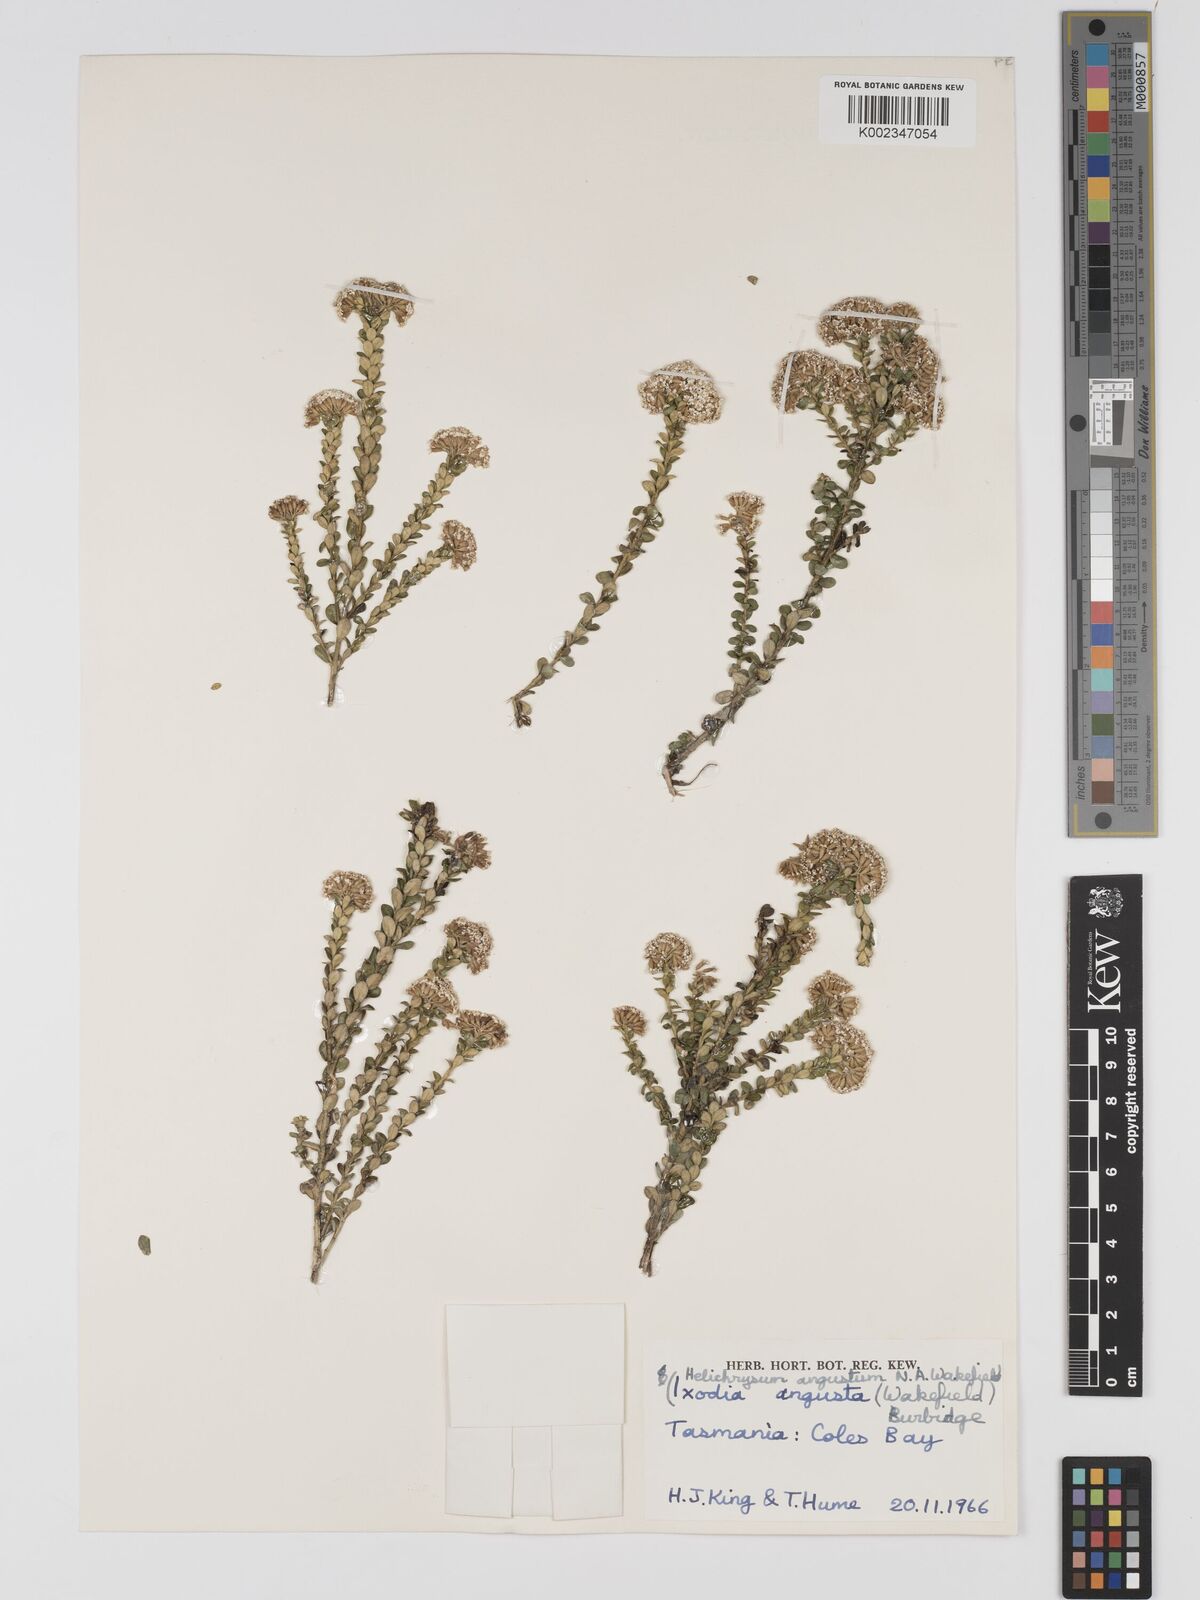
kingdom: Plantae
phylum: Tracheophyta
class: Magnoliopsida
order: Asterales
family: Asteraceae
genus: Odixia
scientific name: Odixia angusta
